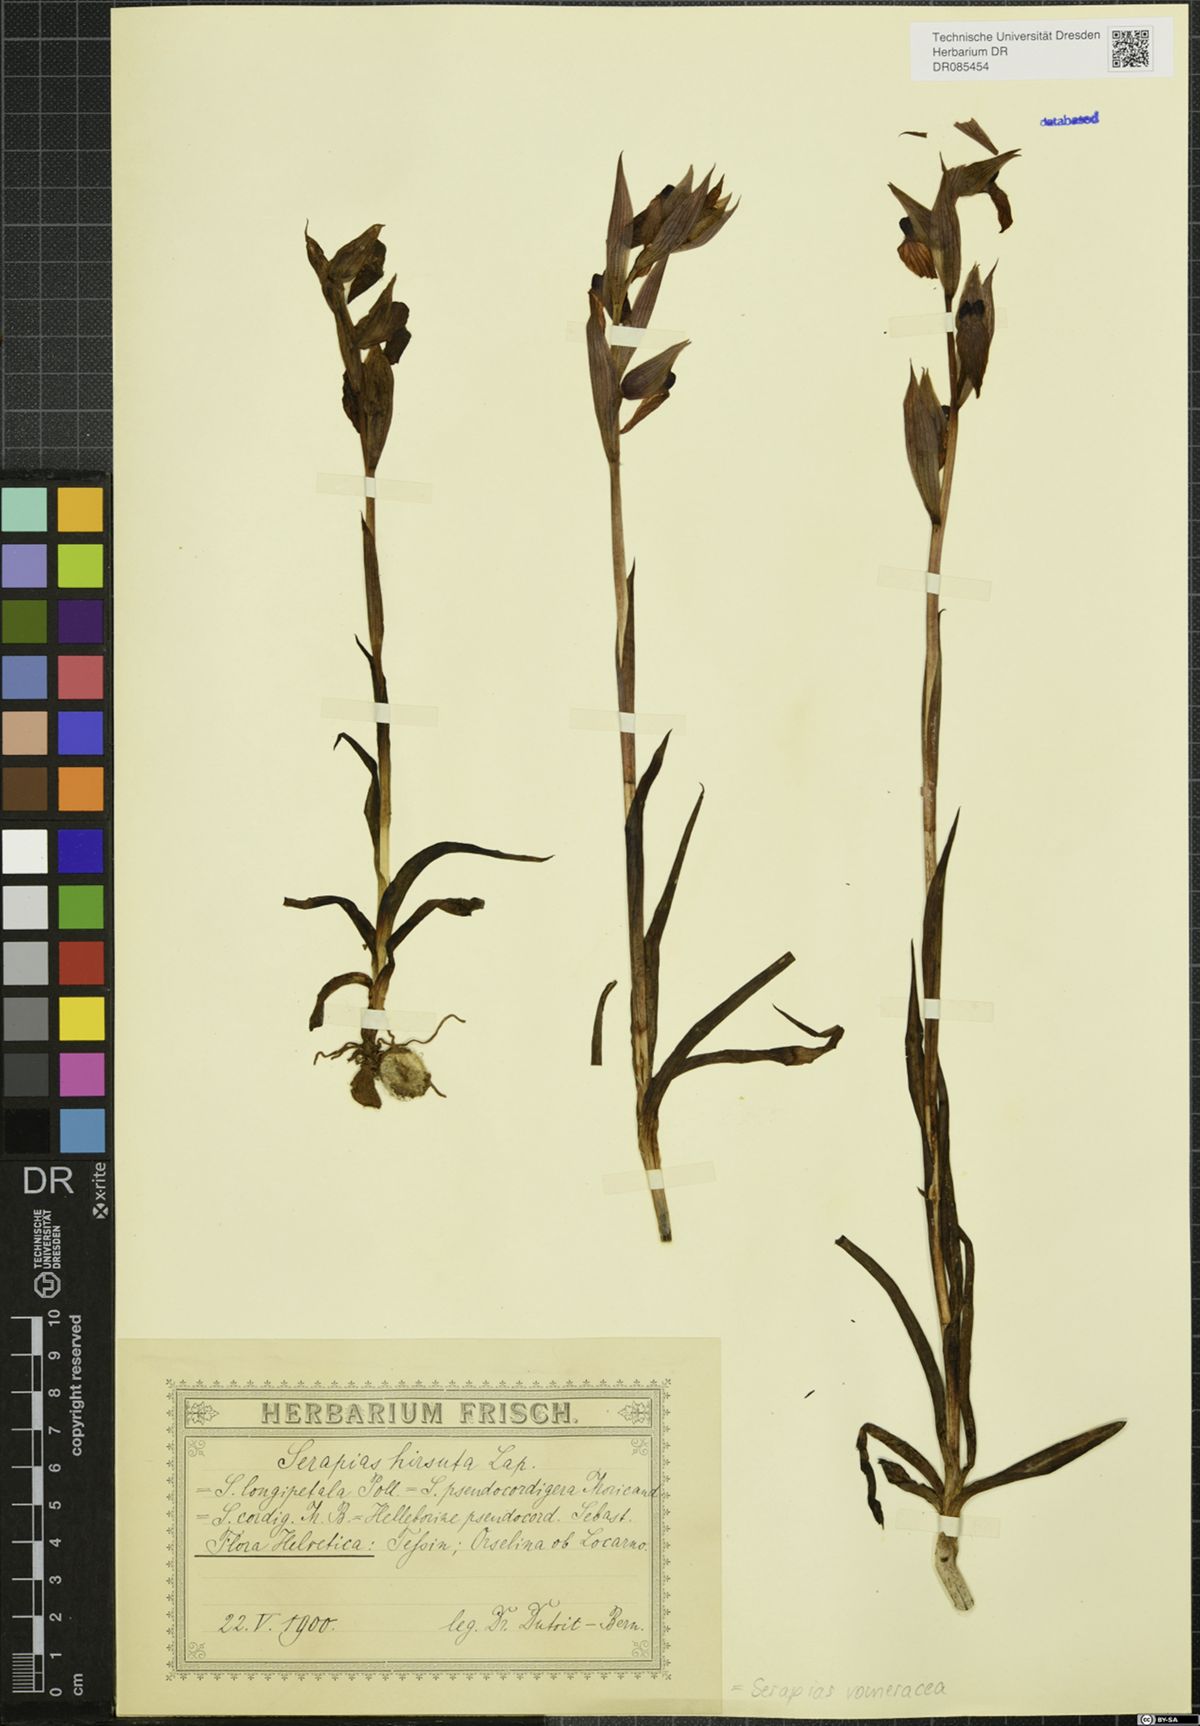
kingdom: Plantae
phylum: Tracheophyta
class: Liliopsida
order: Asparagales
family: Orchidaceae
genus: Serapias
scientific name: Serapias vomeracea
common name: Long-lipped tongue-orchid
